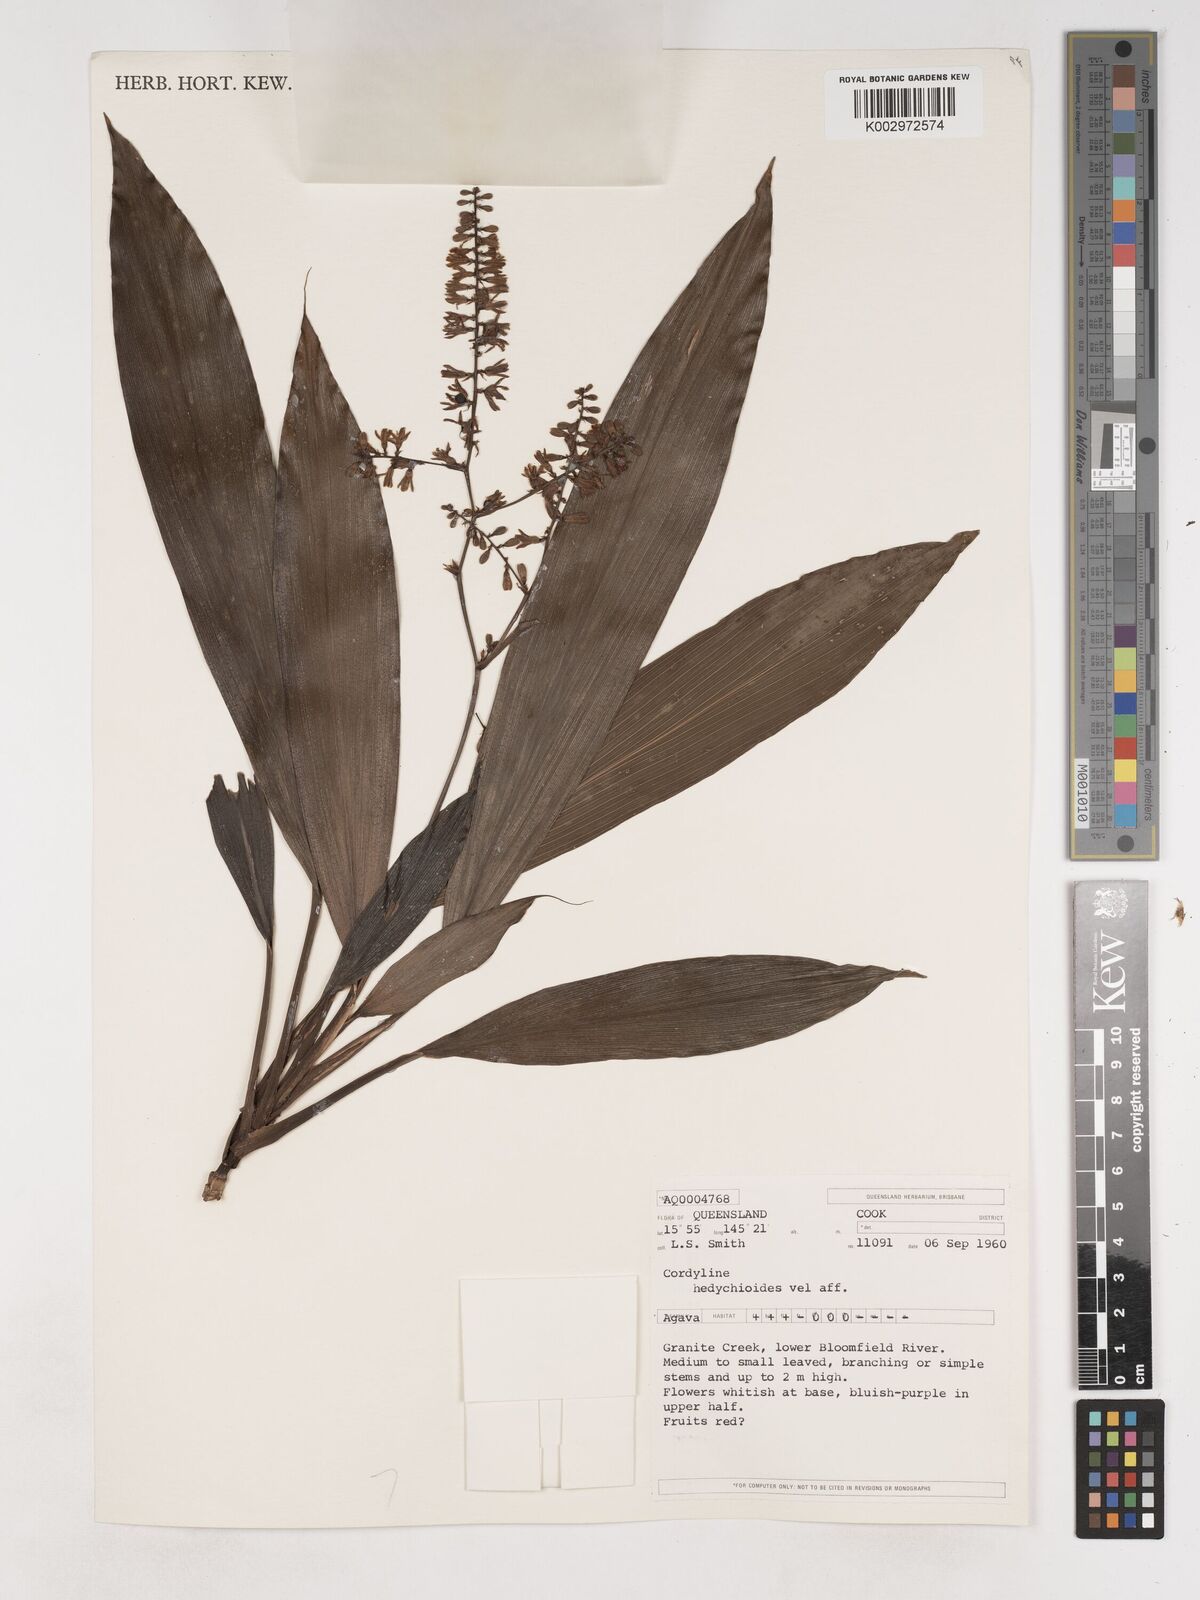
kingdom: Plantae
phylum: Tracheophyta
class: Liliopsida
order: Asparagales
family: Asparagaceae
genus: Cordyline
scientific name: Cordyline fruticosa
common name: Good-luck-plant
